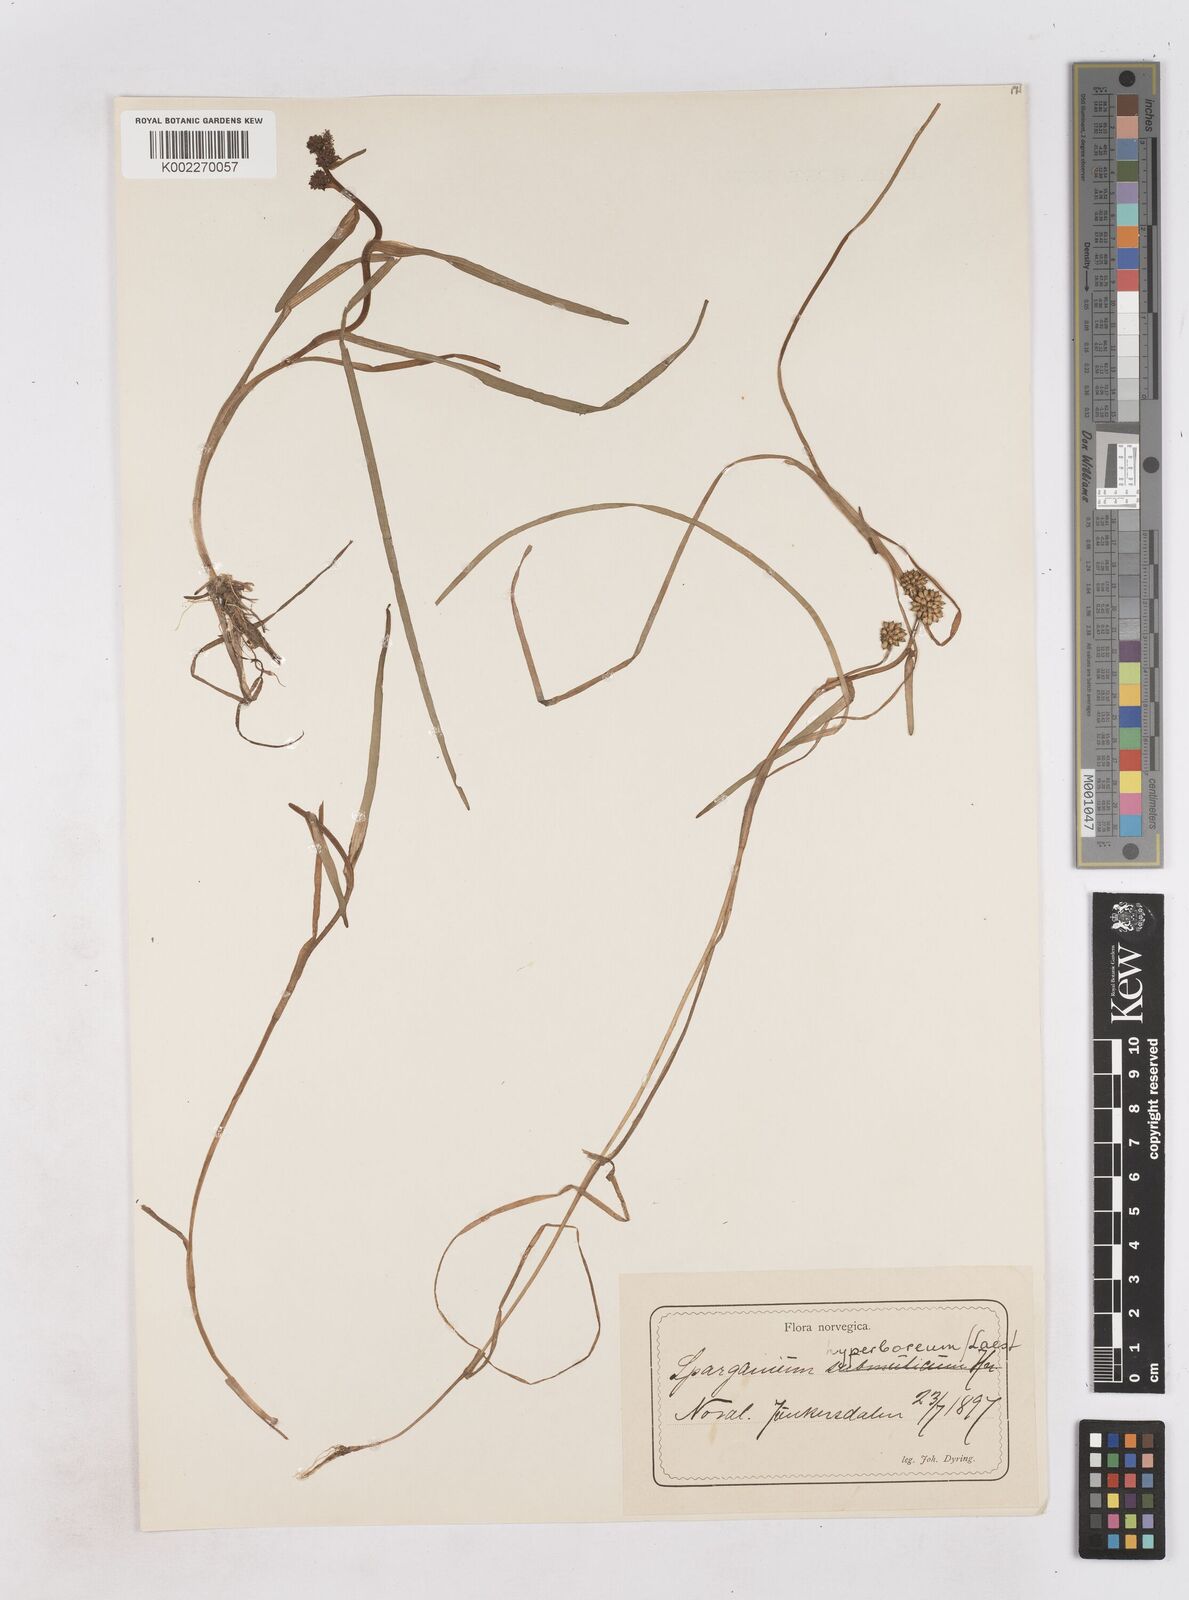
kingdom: Plantae
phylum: Tracheophyta
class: Liliopsida
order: Poales
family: Typhaceae
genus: Sparganium
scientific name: Sparganium hyperboreum
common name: Arctic burreed
